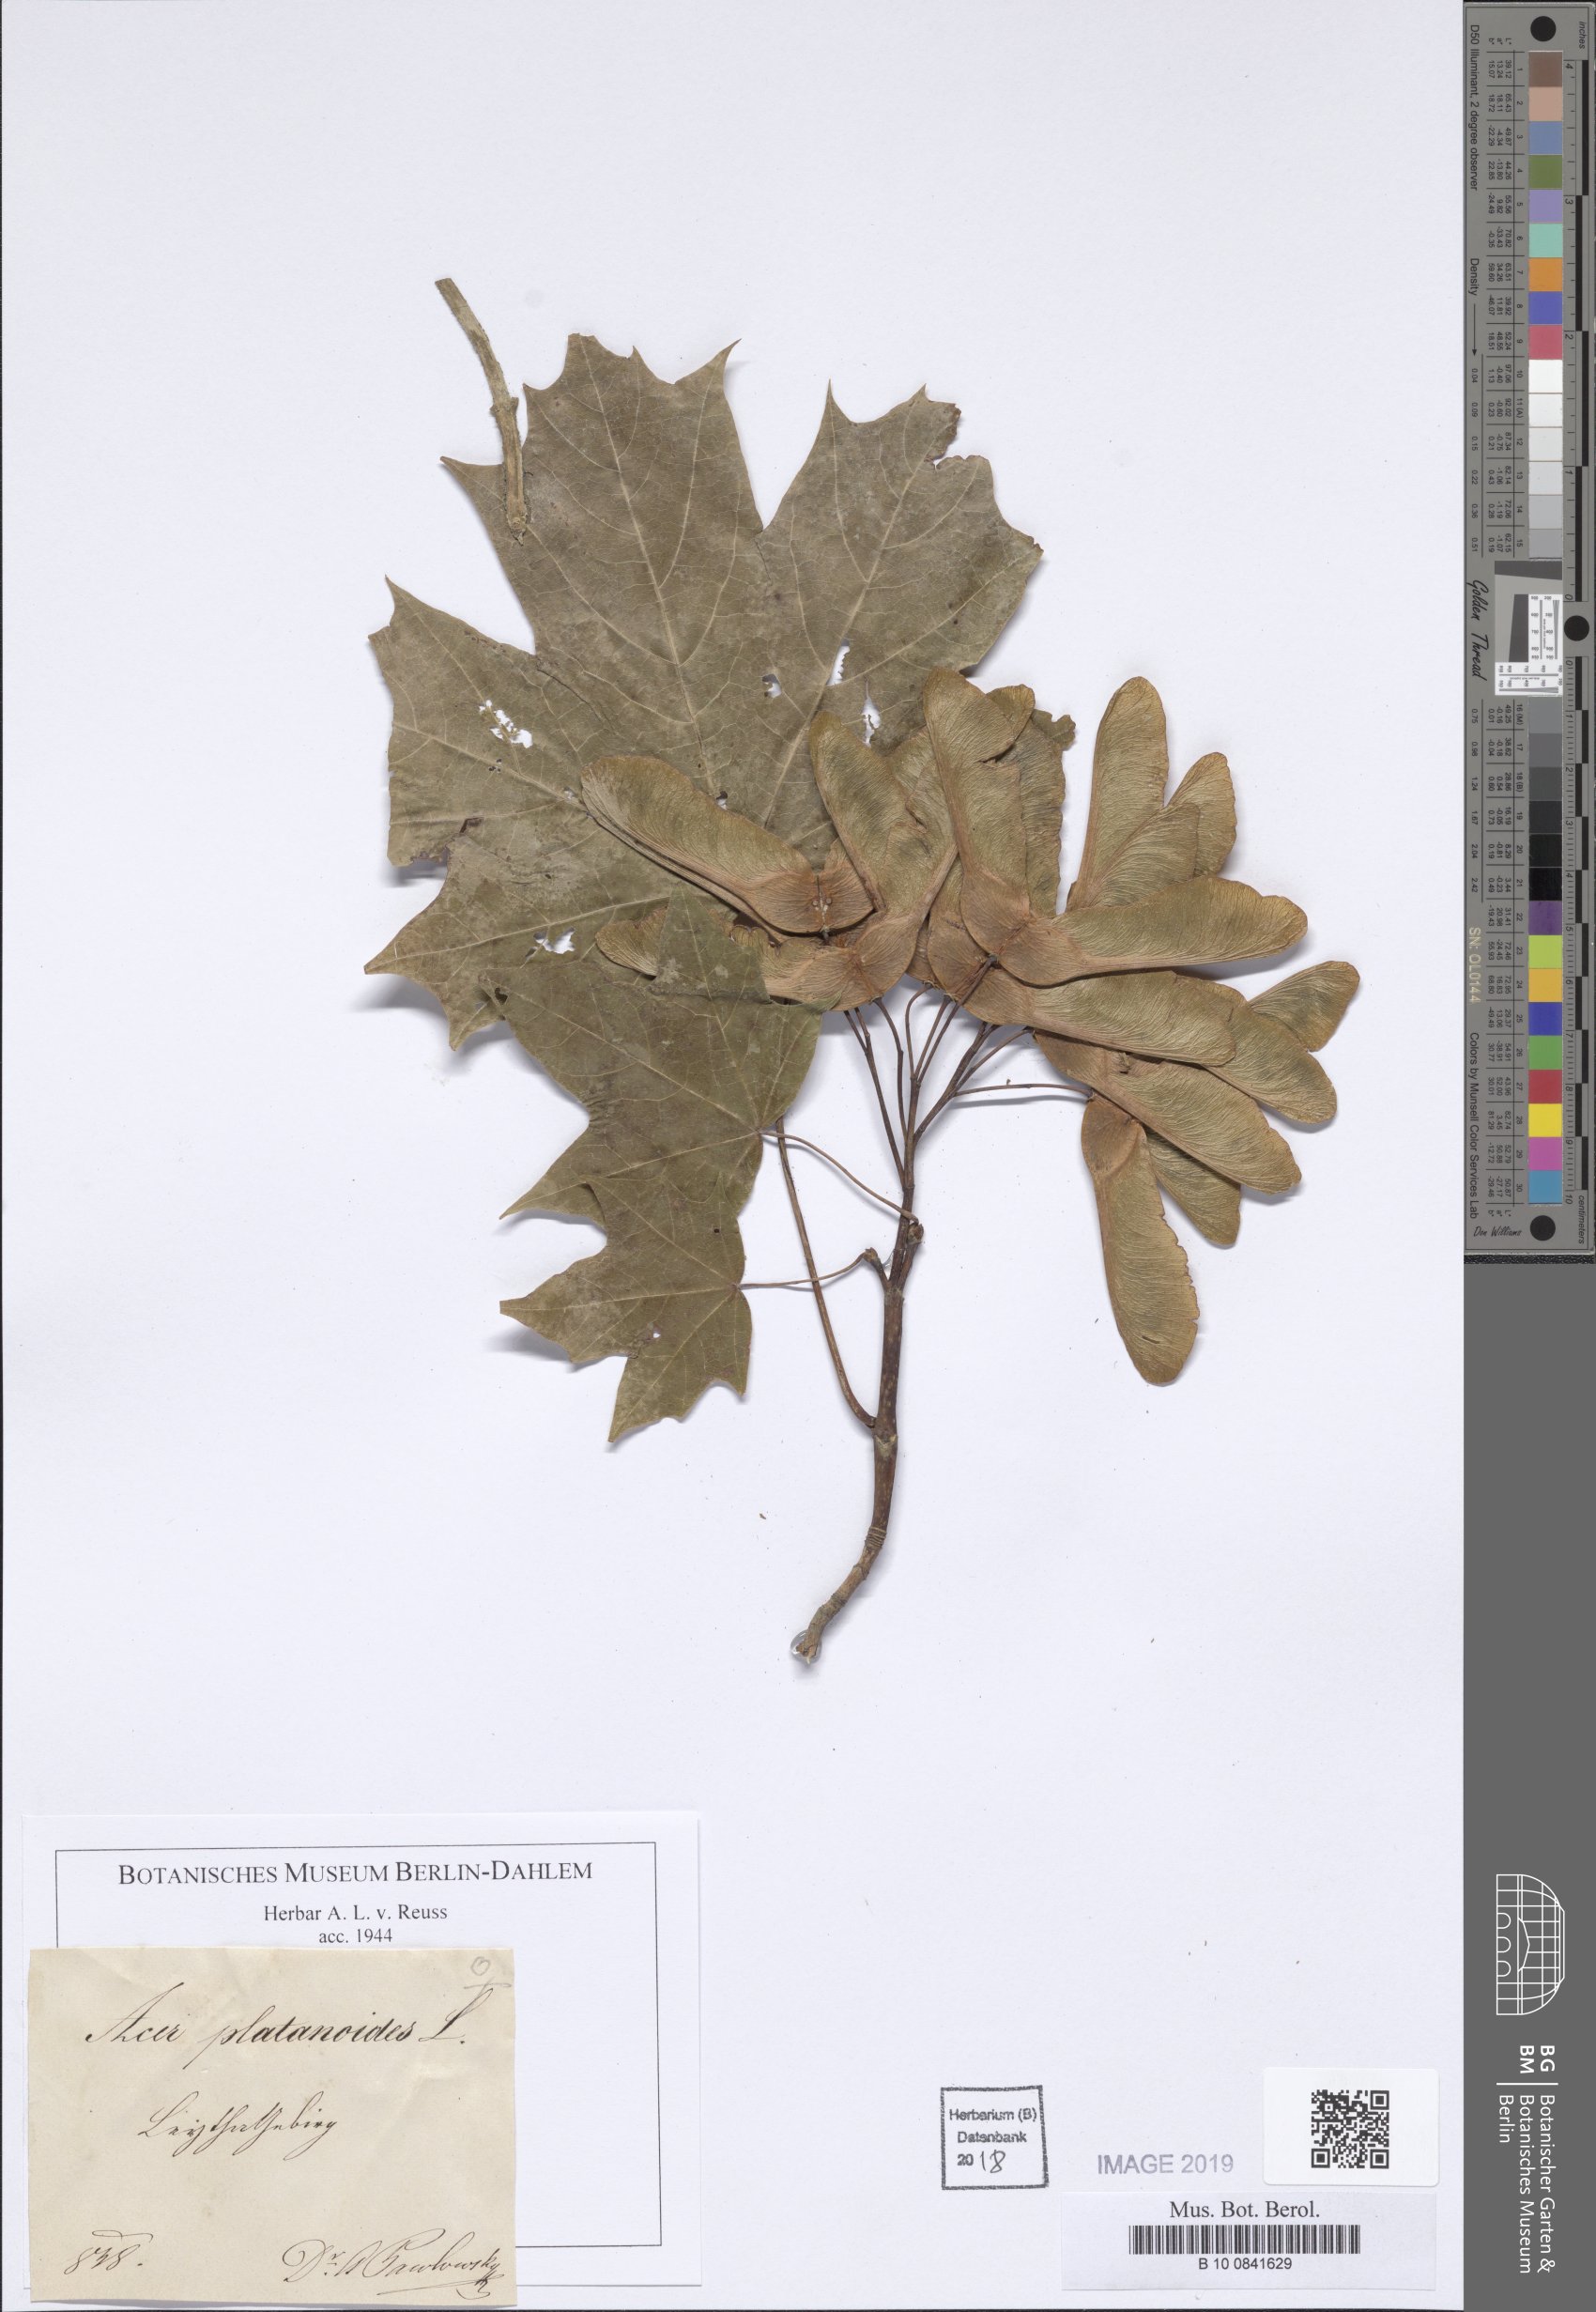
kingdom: Plantae
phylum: Tracheophyta
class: Magnoliopsida
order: Sapindales
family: Sapindaceae
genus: Acer
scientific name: Acer platanoides
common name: Norway maple
